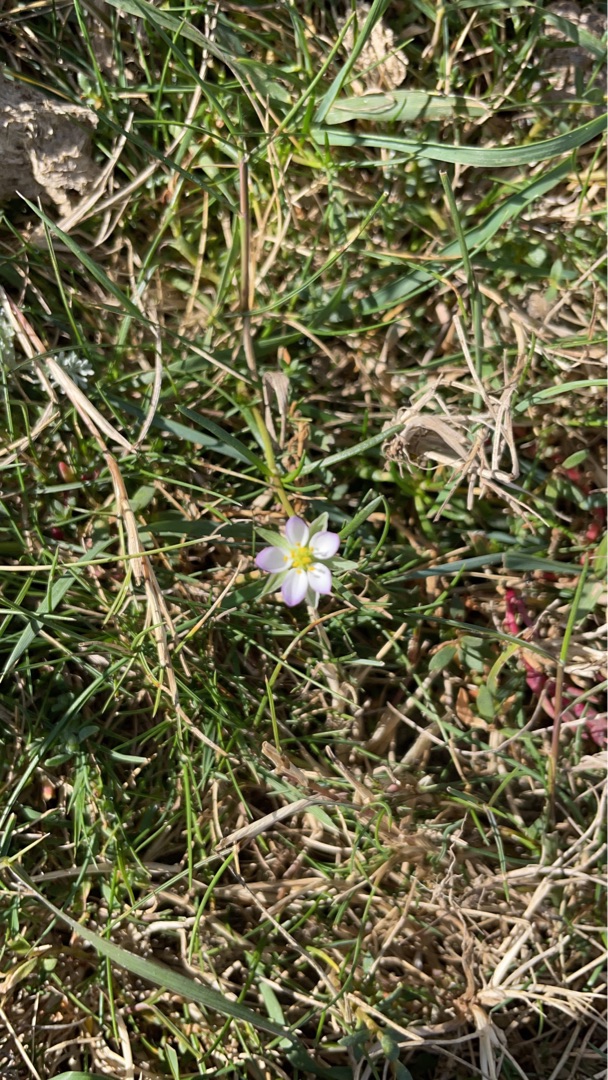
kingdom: Plantae
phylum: Tracheophyta
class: Magnoliopsida
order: Caryophyllales
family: Caryophyllaceae
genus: Spergularia
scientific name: Spergularia media
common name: Vingefrøet hindeknæ
